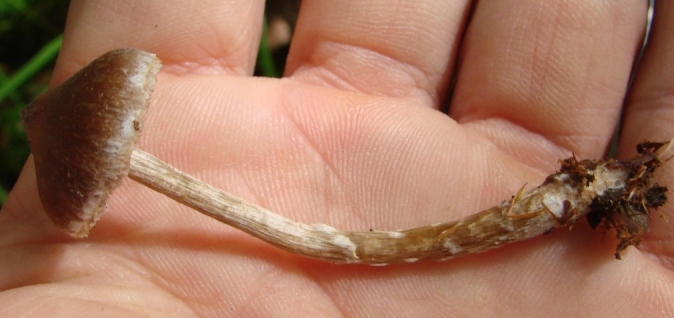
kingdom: Fungi
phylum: Basidiomycota
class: Agaricomycetes
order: Agaricales
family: Cortinariaceae
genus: Cortinarius
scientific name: Cortinarius
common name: pelargonie-slørhat
